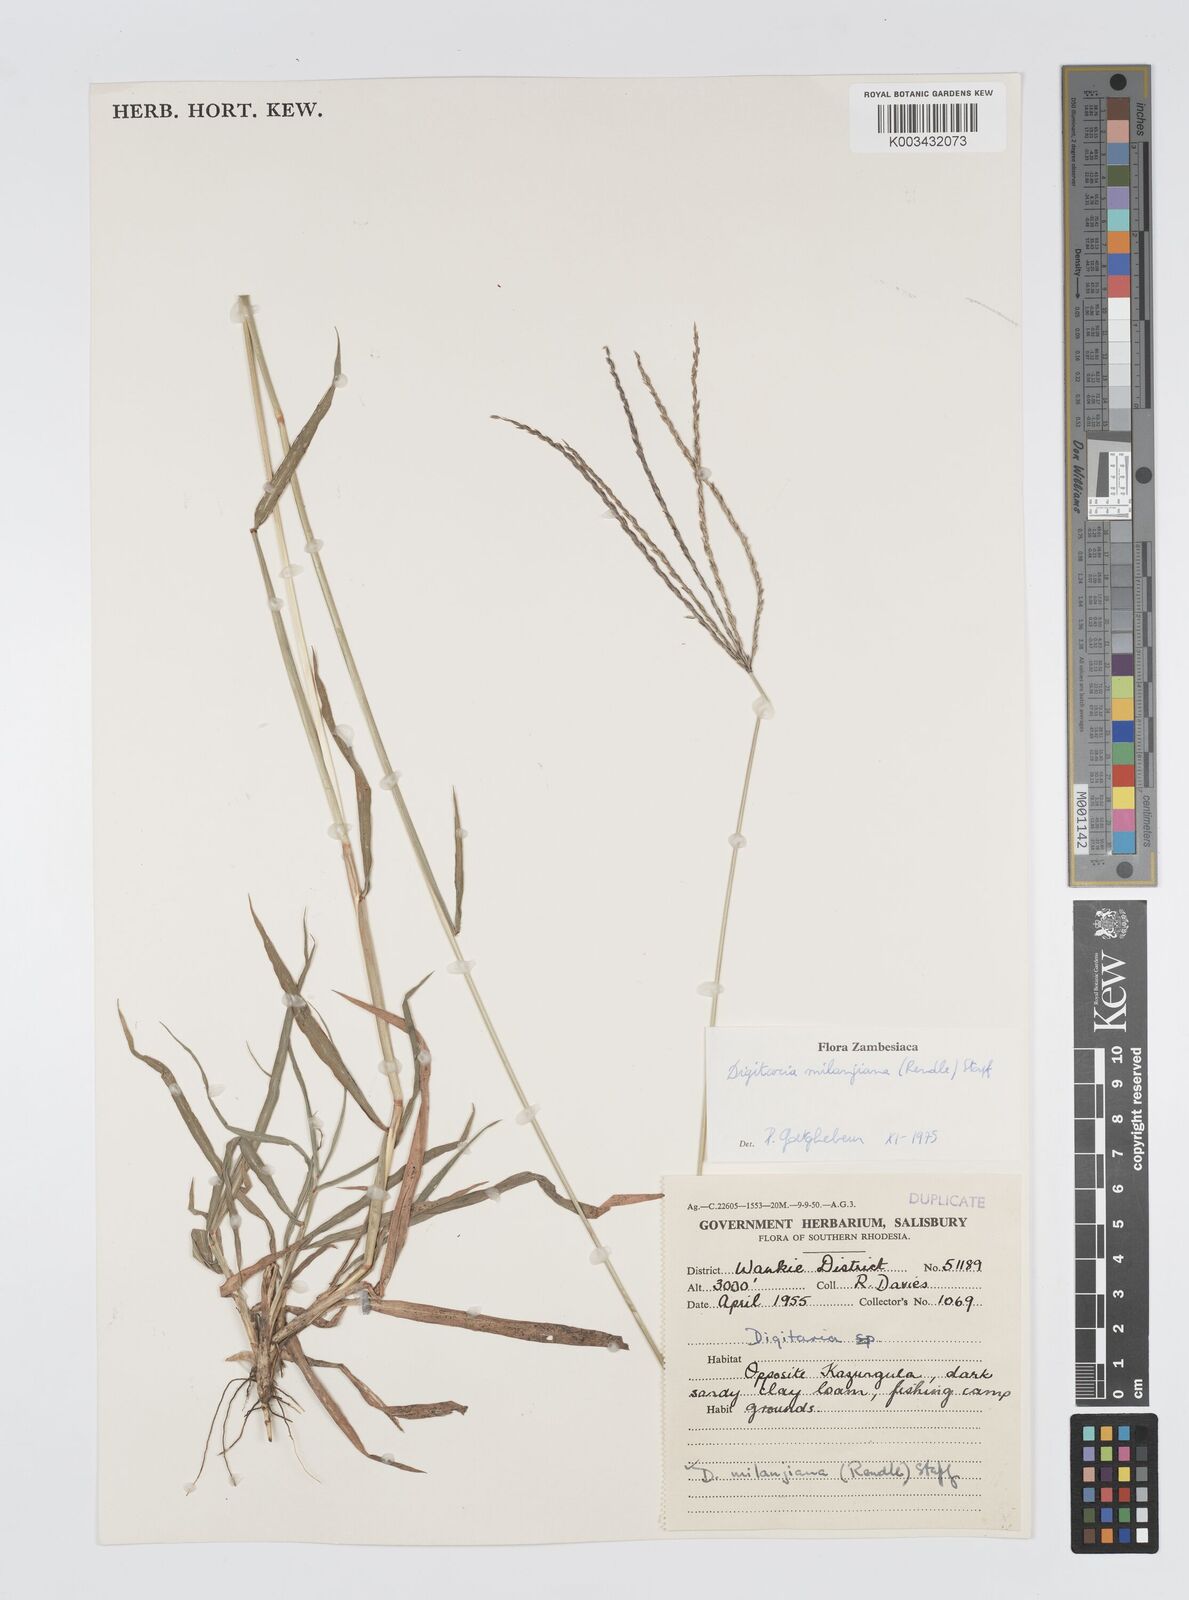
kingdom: Plantae
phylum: Tracheophyta
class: Liliopsida
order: Poales
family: Poaceae
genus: Digitaria
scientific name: Digitaria milanjiana
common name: Madagascar crabgrass
